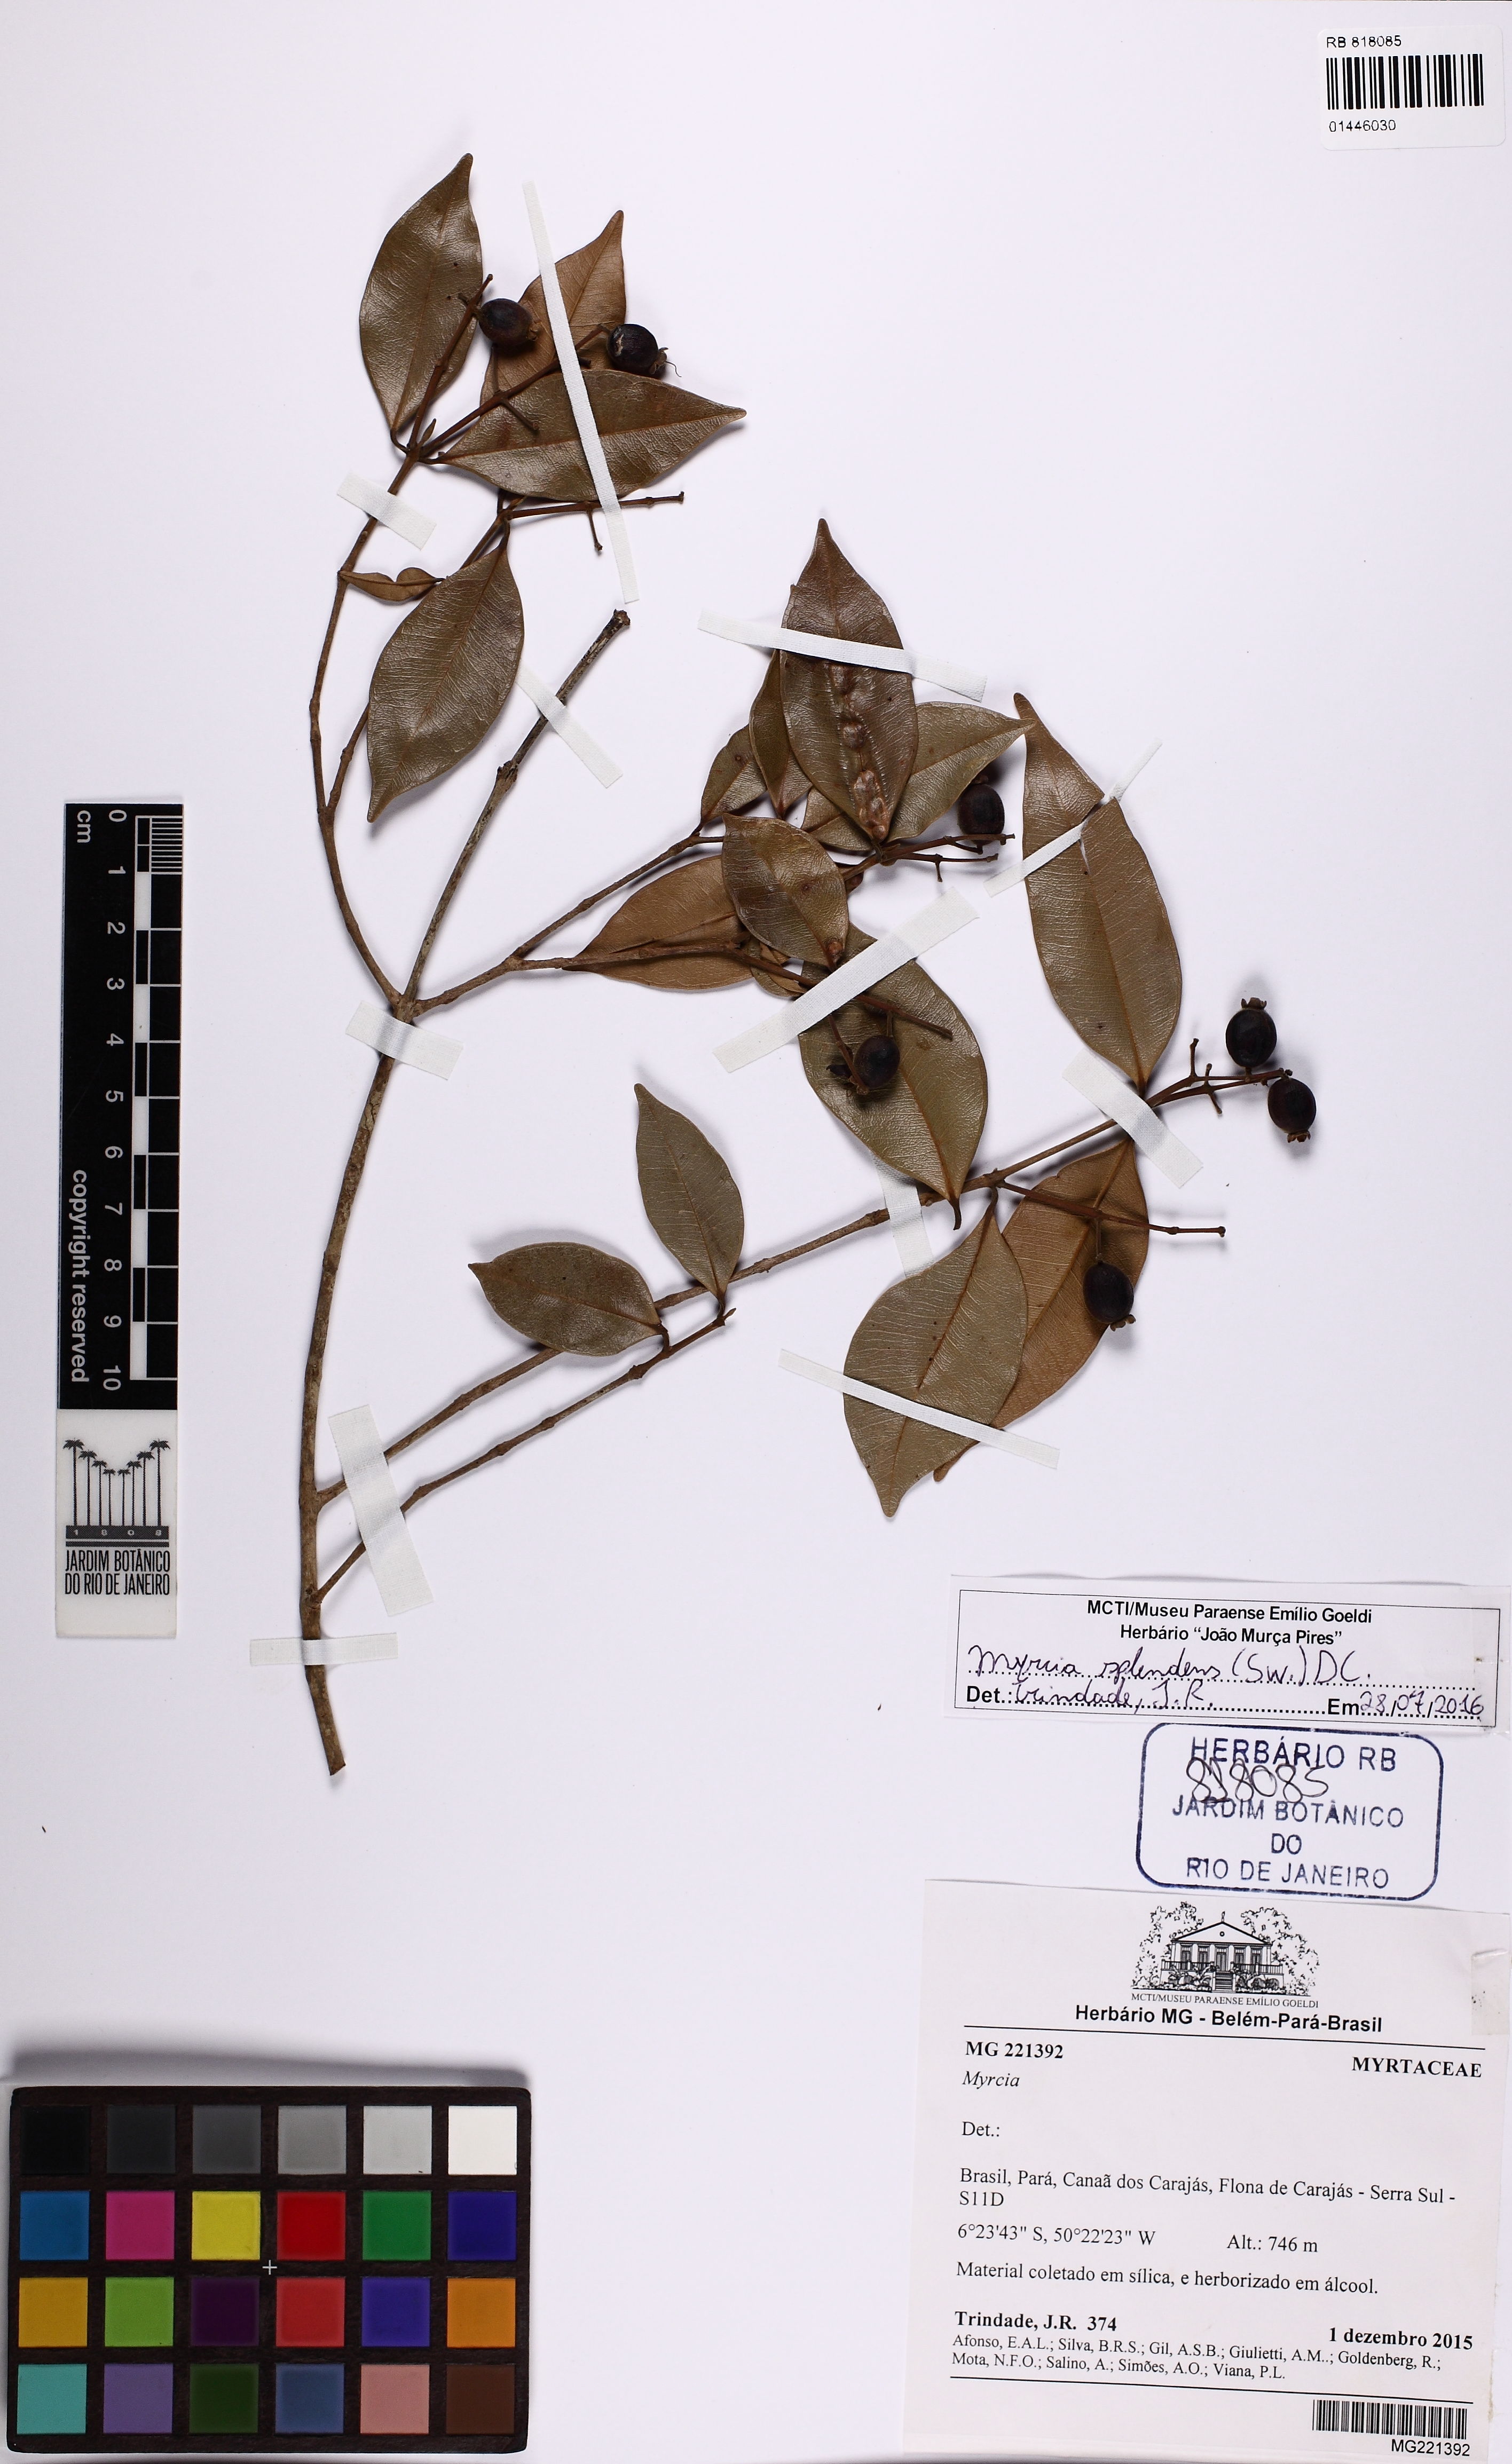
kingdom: Plantae
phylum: Tracheophyta
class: Magnoliopsida
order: Myrtales
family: Myrtaceae
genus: Myrcia
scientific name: Myrcia splendens
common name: Surinam cherry
